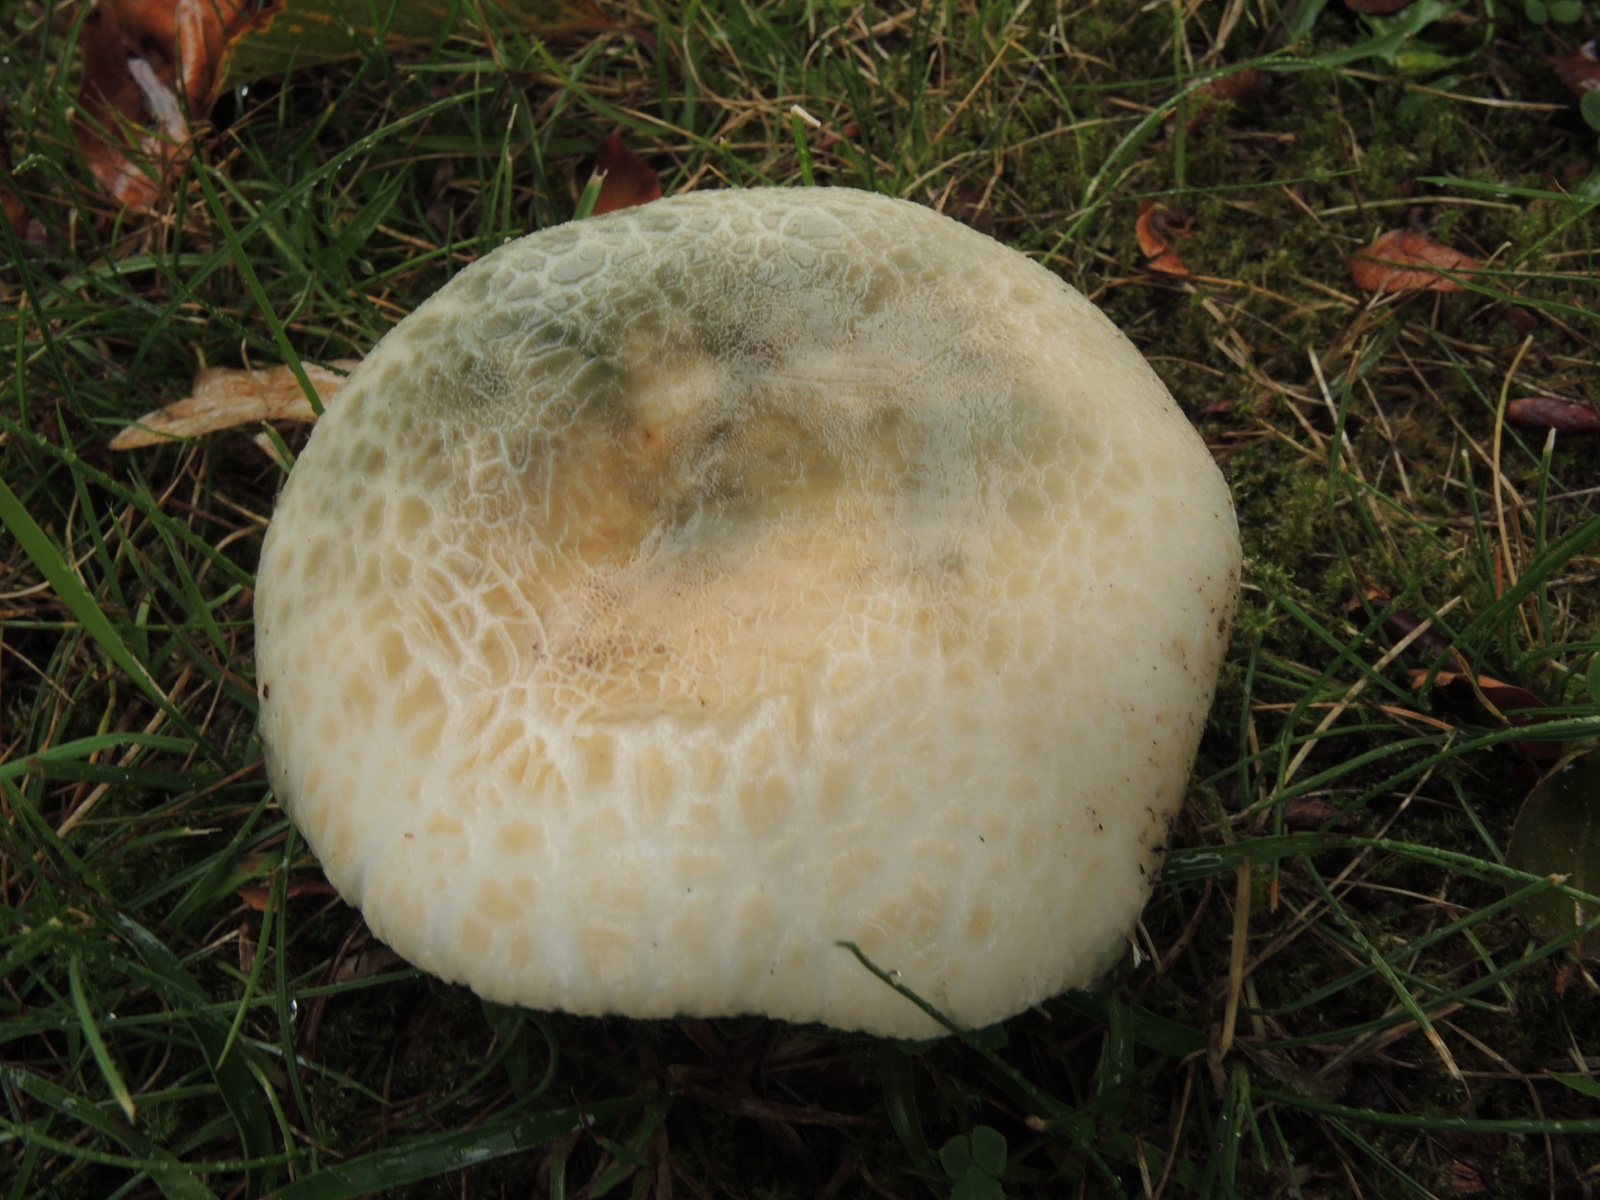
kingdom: Fungi
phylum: Basidiomycota
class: Agaricomycetes
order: Russulales
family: Russulaceae
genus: Russula
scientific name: Russula virescens
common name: spanskgrøn skørhat
